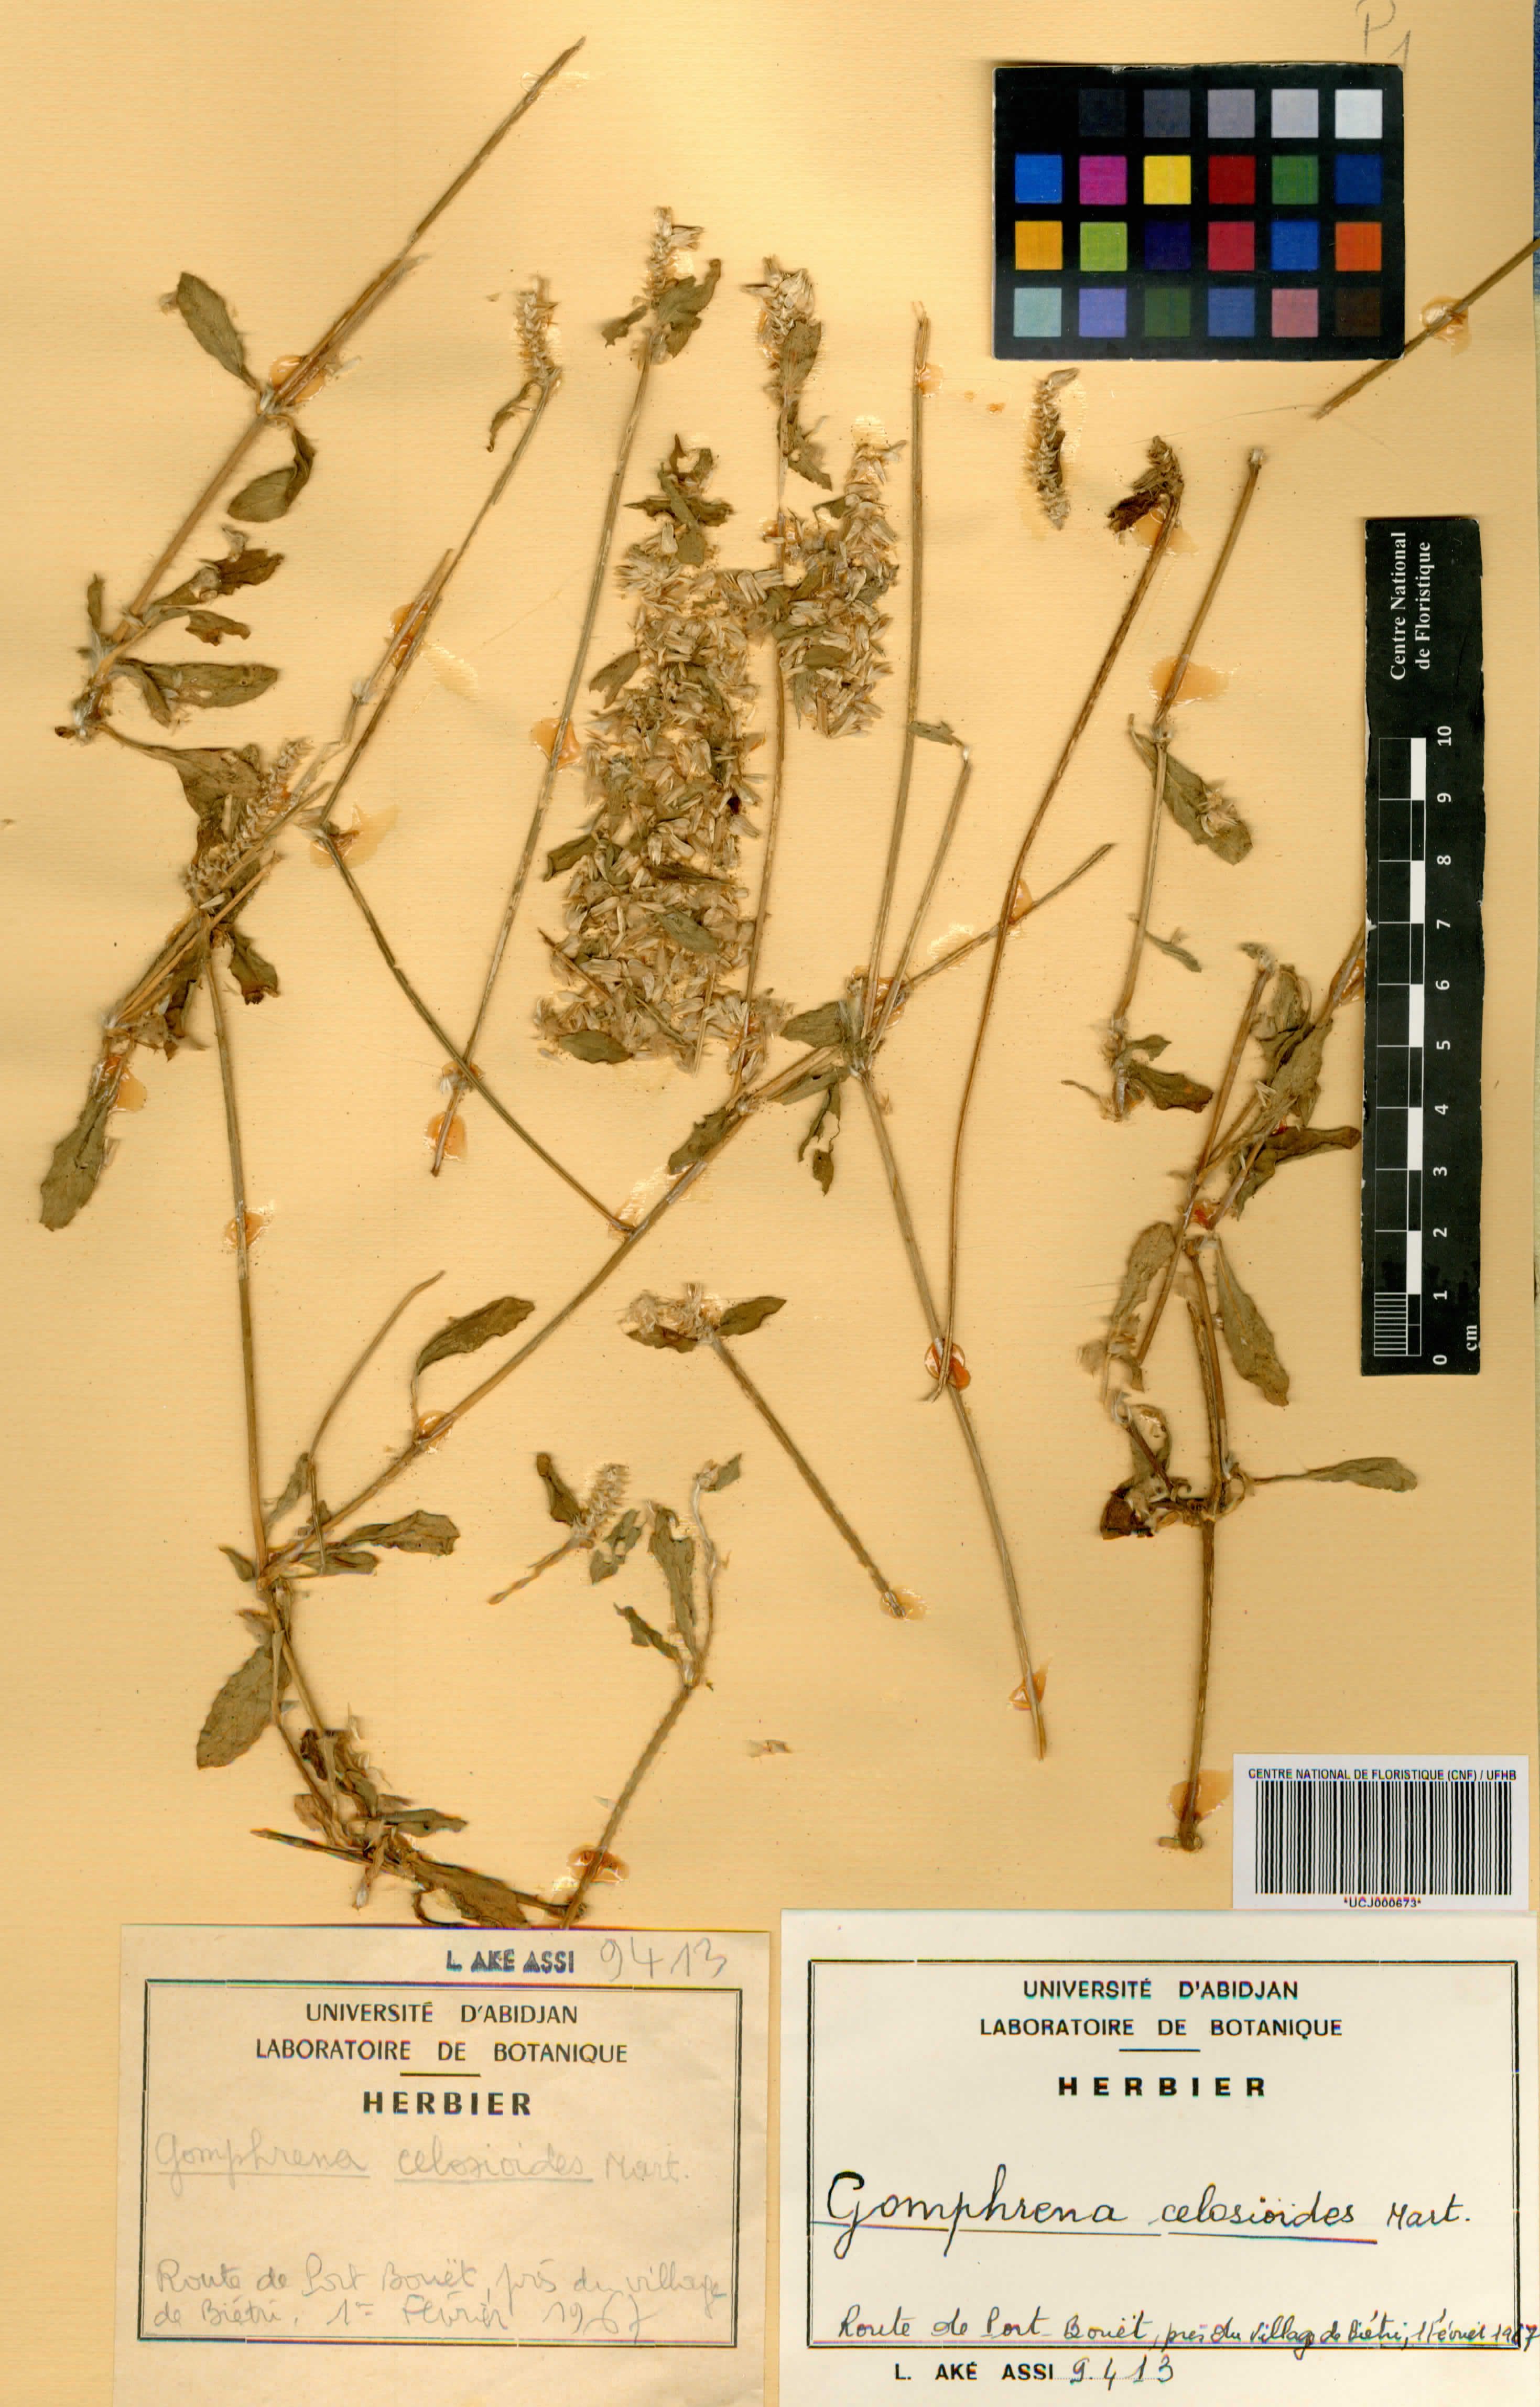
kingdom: Plantae
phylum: Tracheophyta
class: Magnoliopsida
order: Caryophyllales
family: Amaranthaceae
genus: Gomphrena
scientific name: Gomphrena
